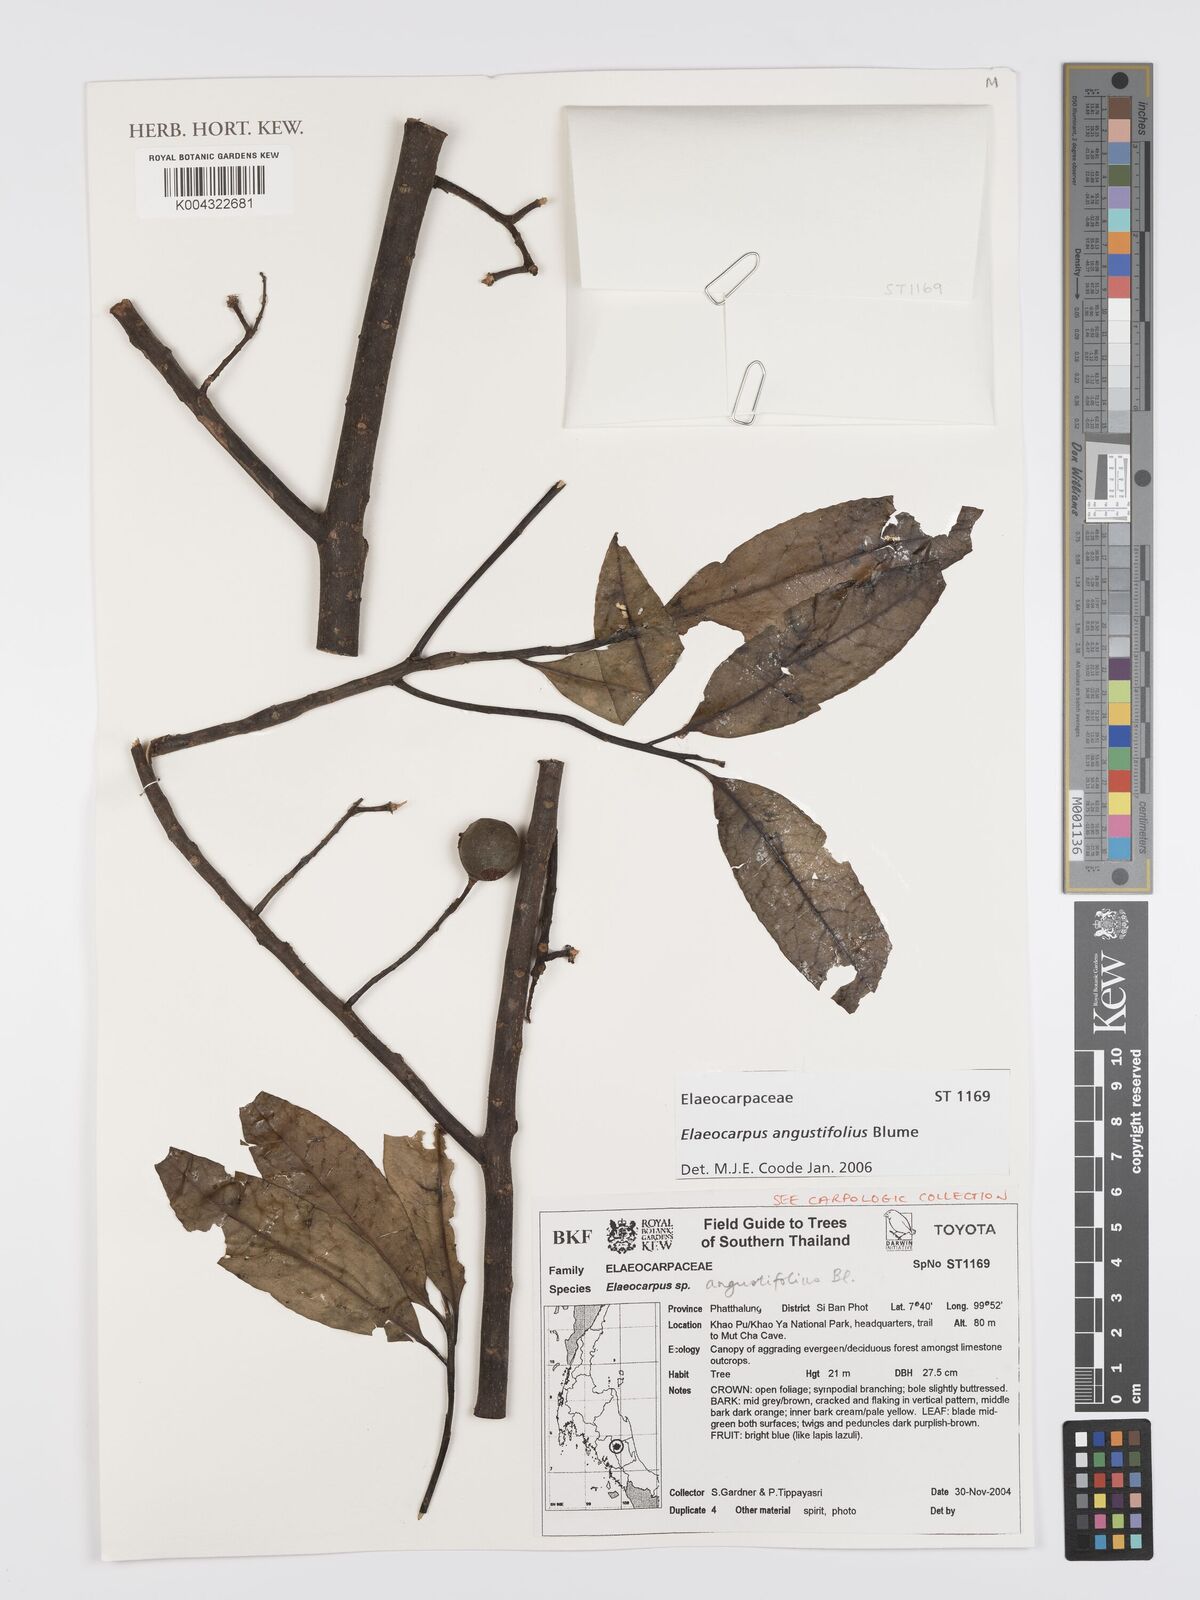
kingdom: Plantae
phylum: Tracheophyta
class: Magnoliopsida
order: Oxalidales
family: Elaeocarpaceae
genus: Elaeocarpus
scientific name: Elaeocarpus
